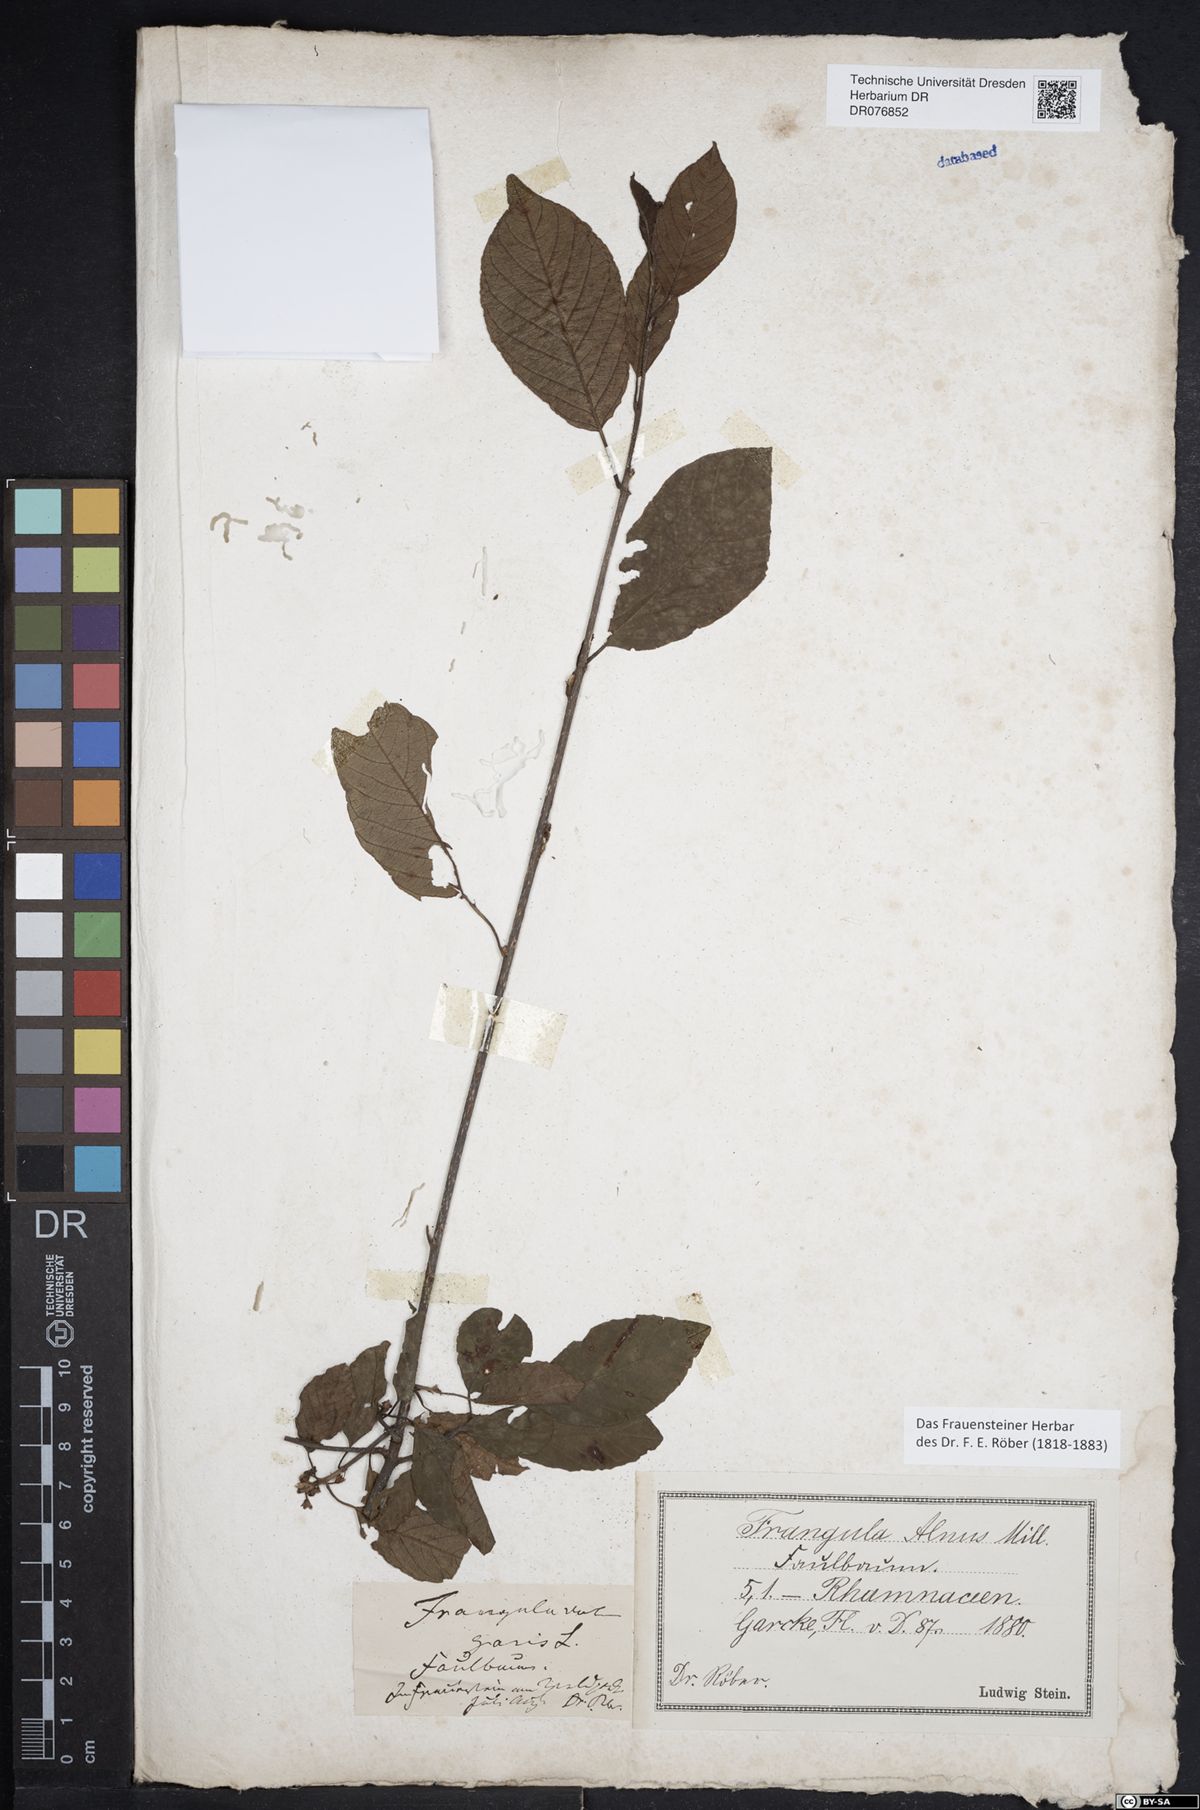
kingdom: Plantae
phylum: Tracheophyta
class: Magnoliopsida
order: Rosales
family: Rhamnaceae
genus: Frangula
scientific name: Frangula alnus
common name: Alder buckthorn
